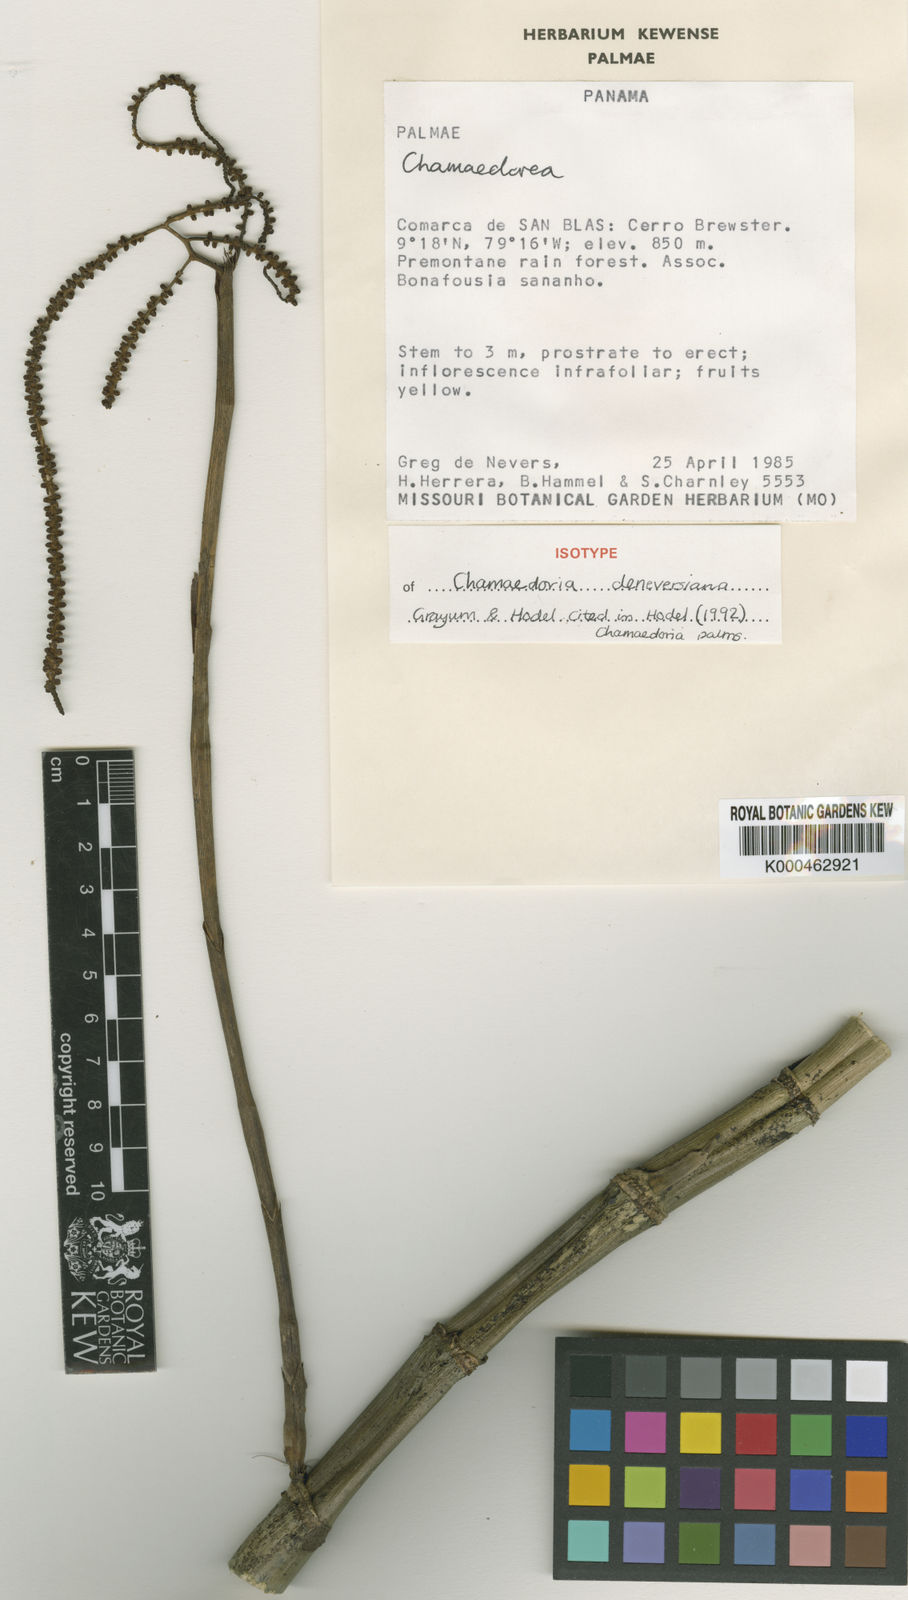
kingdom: Plantae
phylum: Tracheophyta
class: Liliopsida
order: Arecales
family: Arecaceae
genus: Chamaedorea
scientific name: Chamaedorea deneversiana
